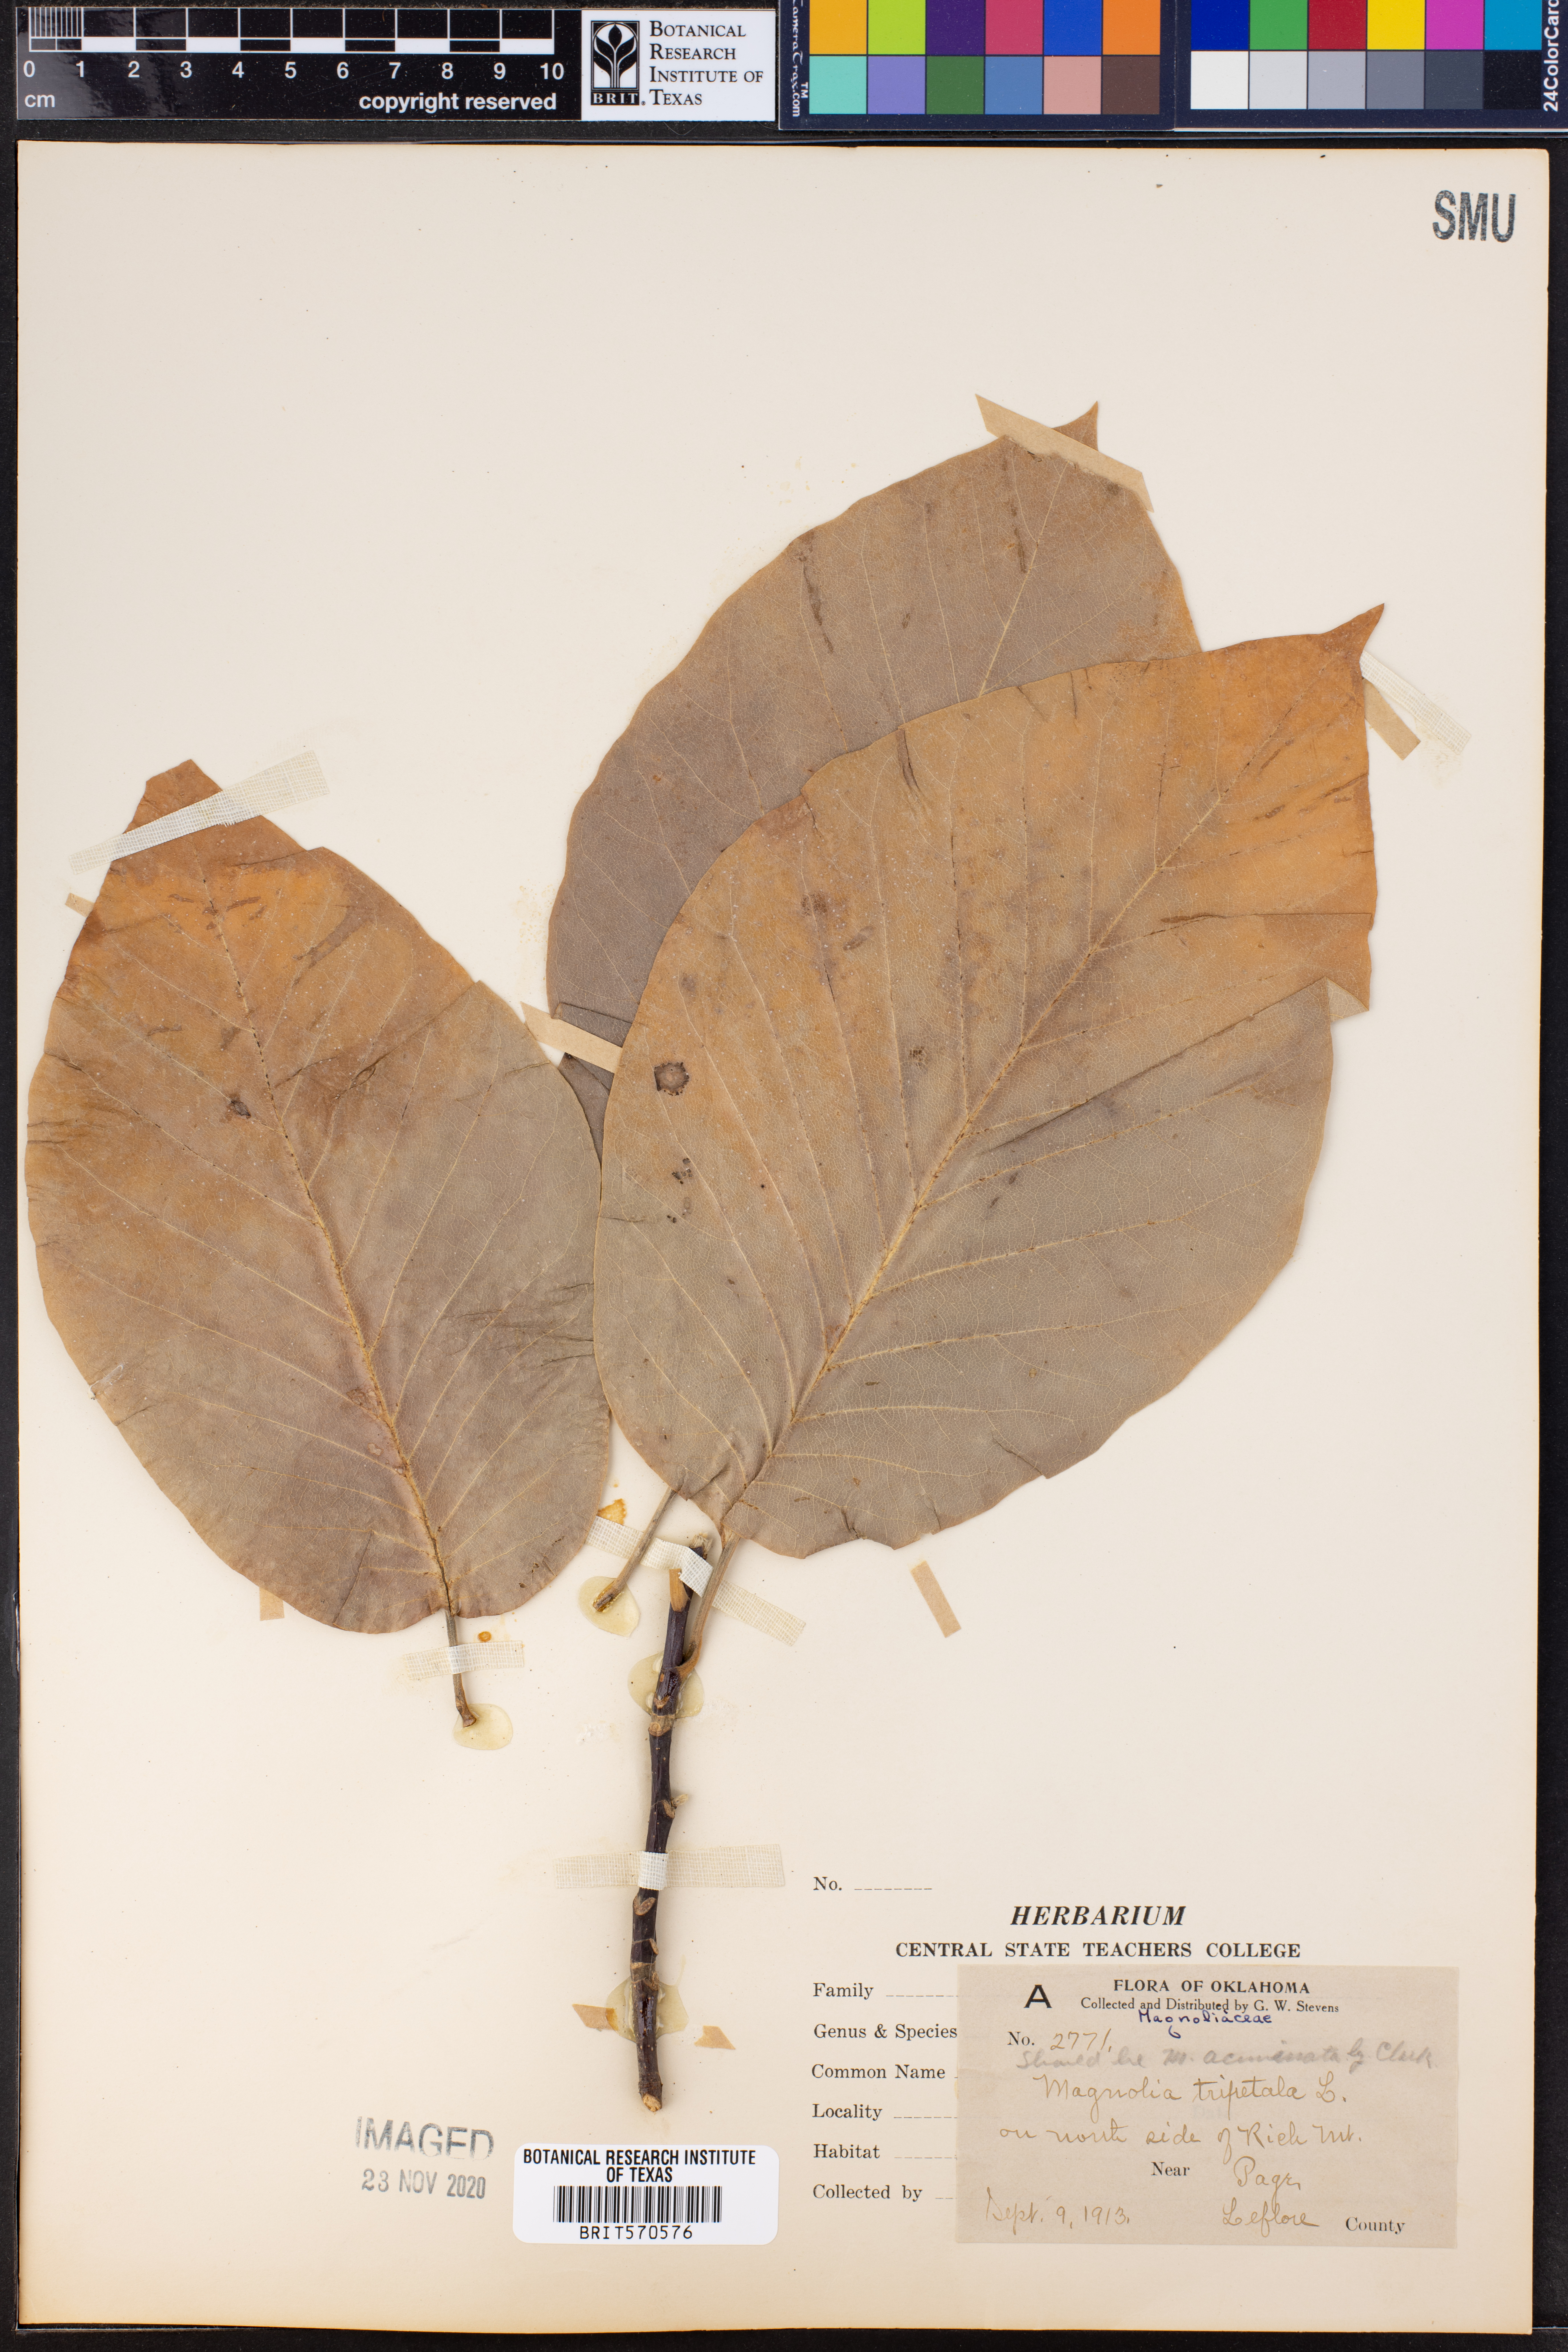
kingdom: Plantae
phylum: Tracheophyta
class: Magnoliopsida
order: Magnoliales
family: Magnoliaceae
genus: Magnolia
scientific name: Magnolia acuminata
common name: Cucumber magnolia
